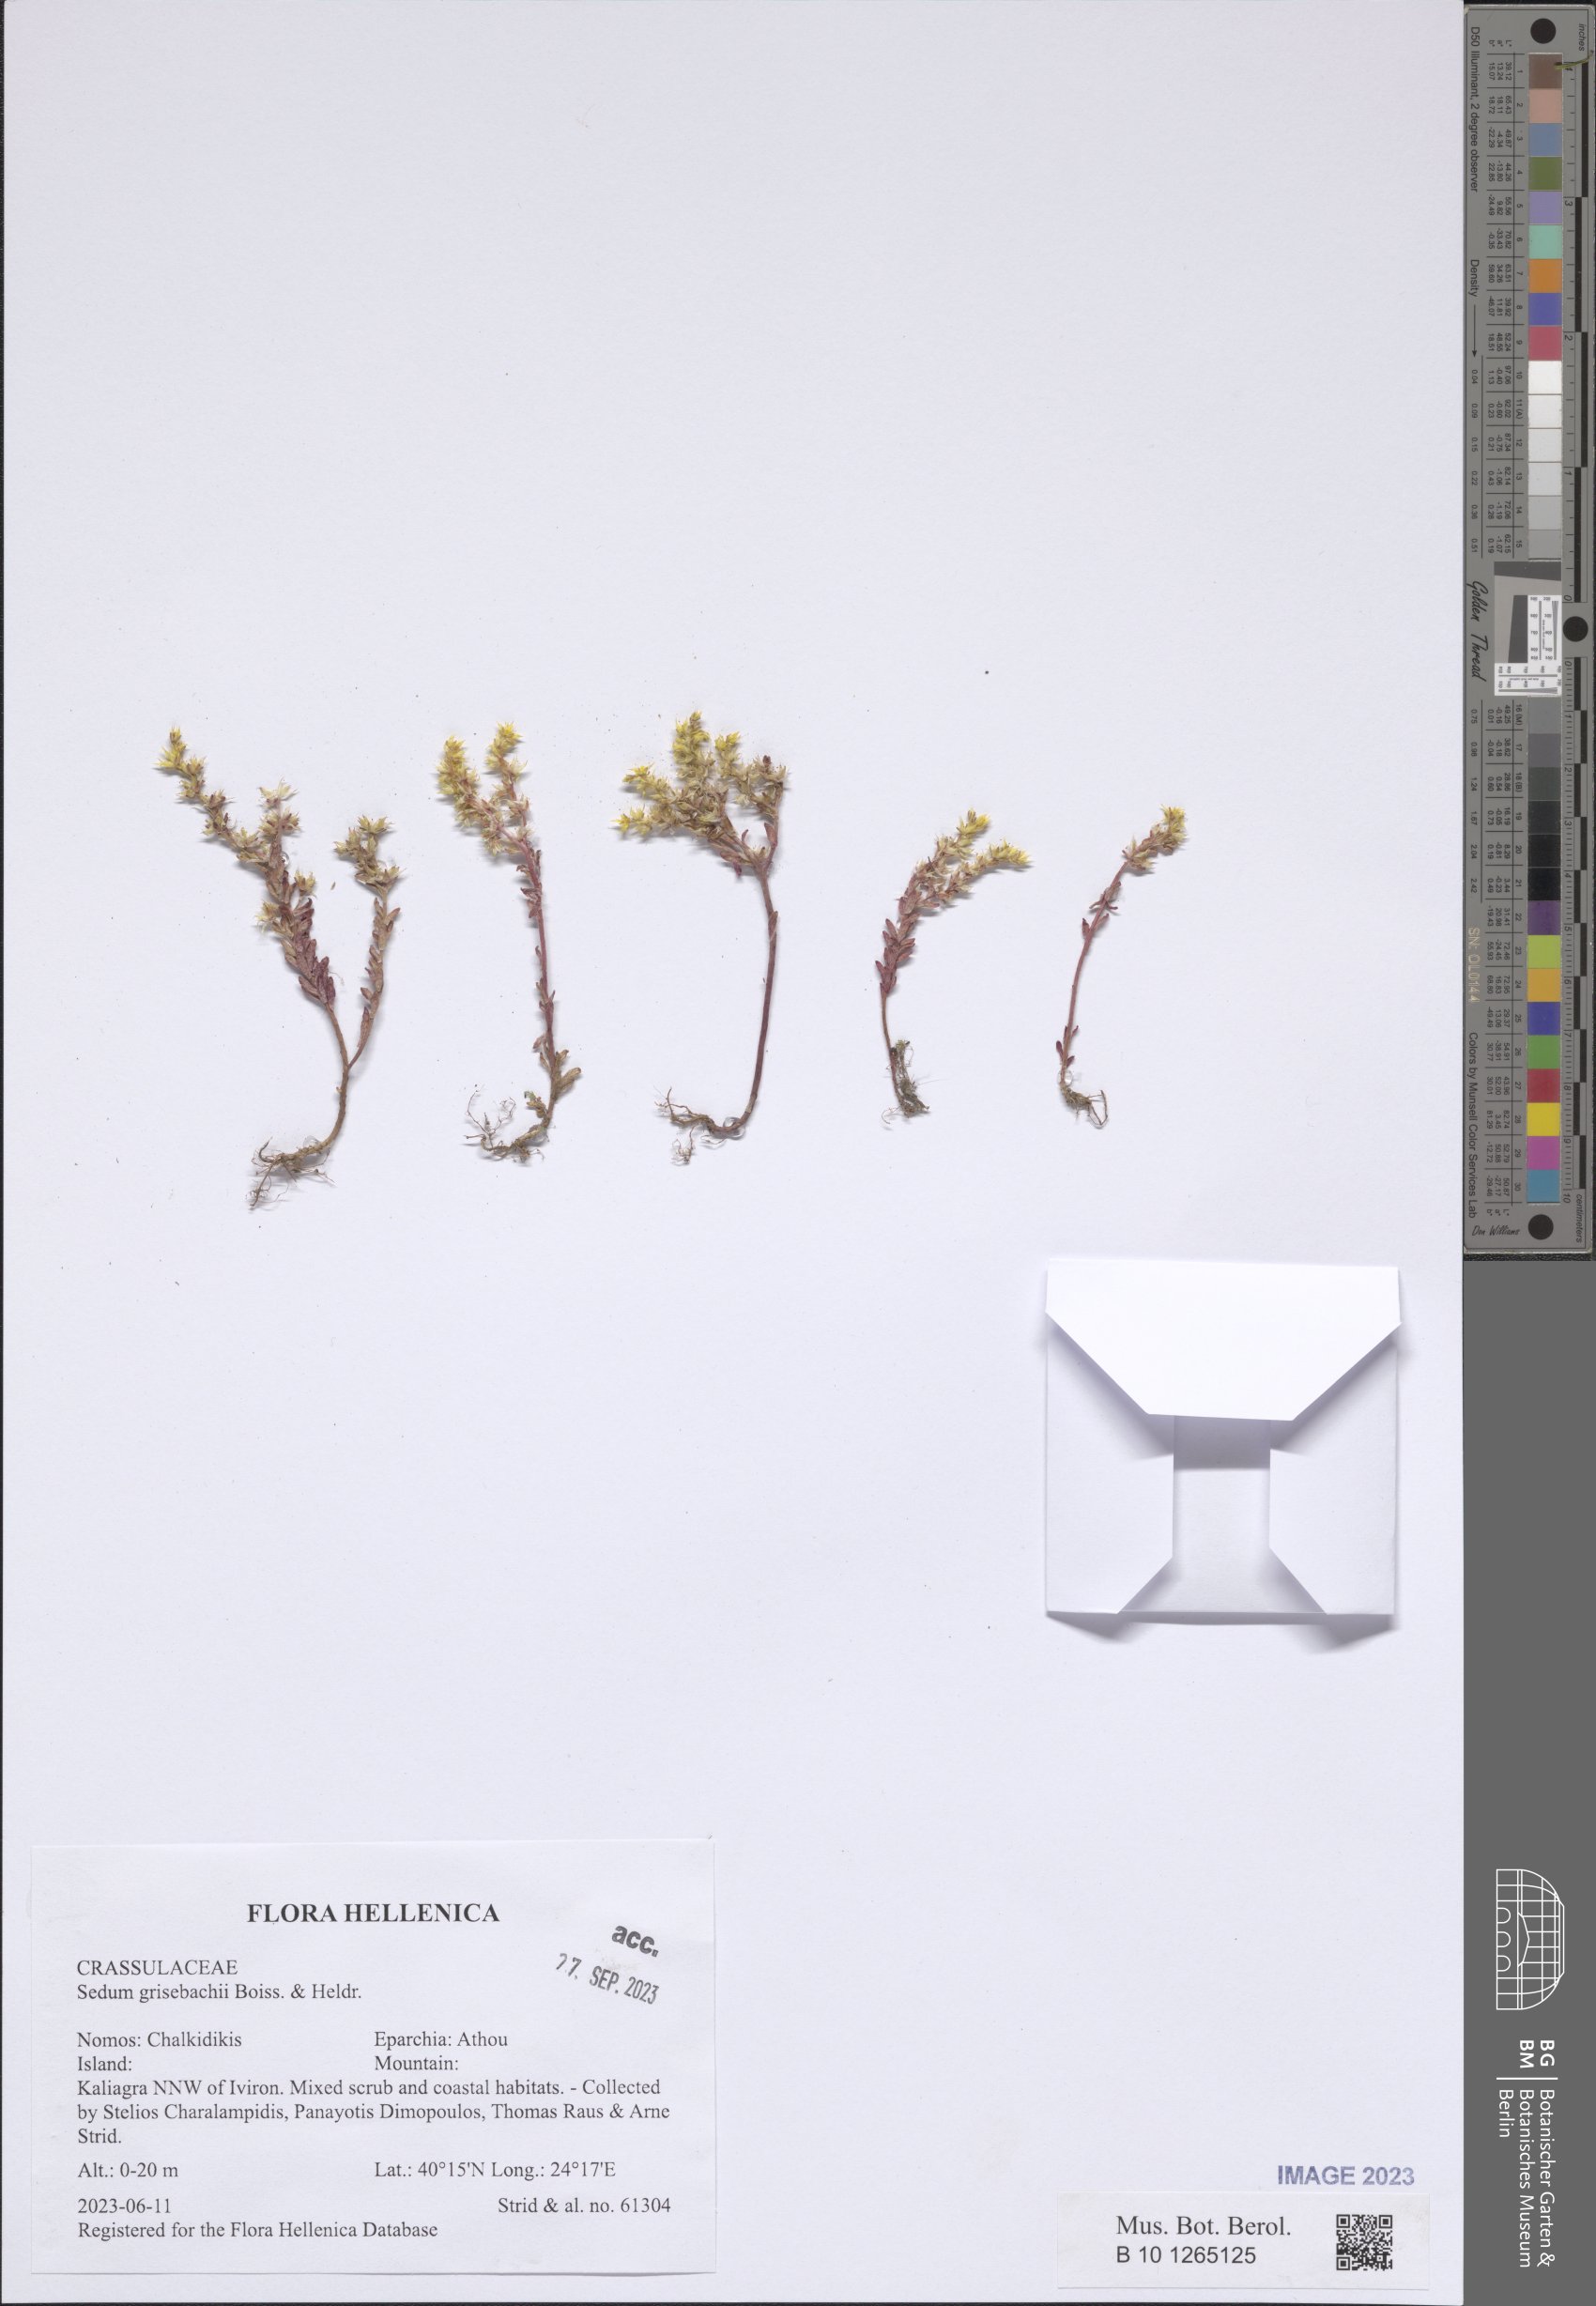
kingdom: Plantae
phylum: Tracheophyta
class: Magnoliopsida
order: Saxifragales
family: Crassulaceae
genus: Sedum
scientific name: Sedum grisebachii
